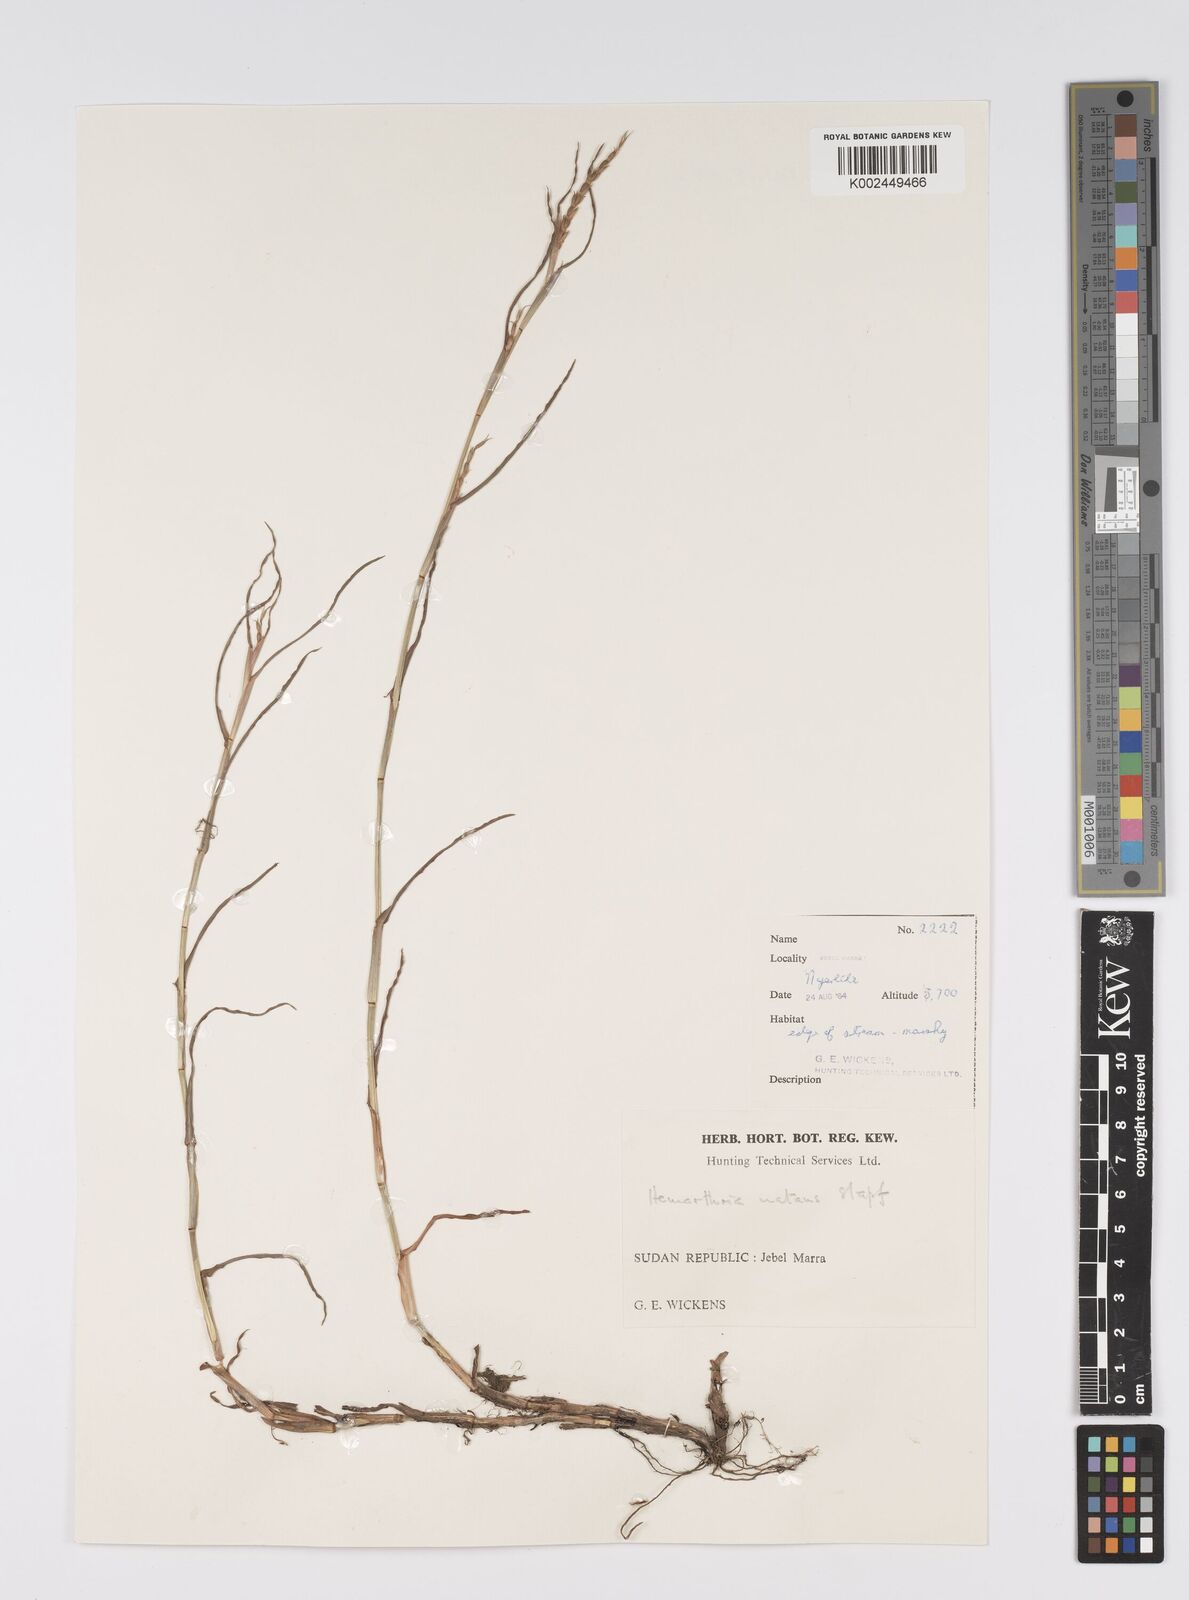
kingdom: Plantae
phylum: Tracheophyta
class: Liliopsida
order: Poales
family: Poaceae
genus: Hemarthria
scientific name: Hemarthria altissima
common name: African jointgrass
